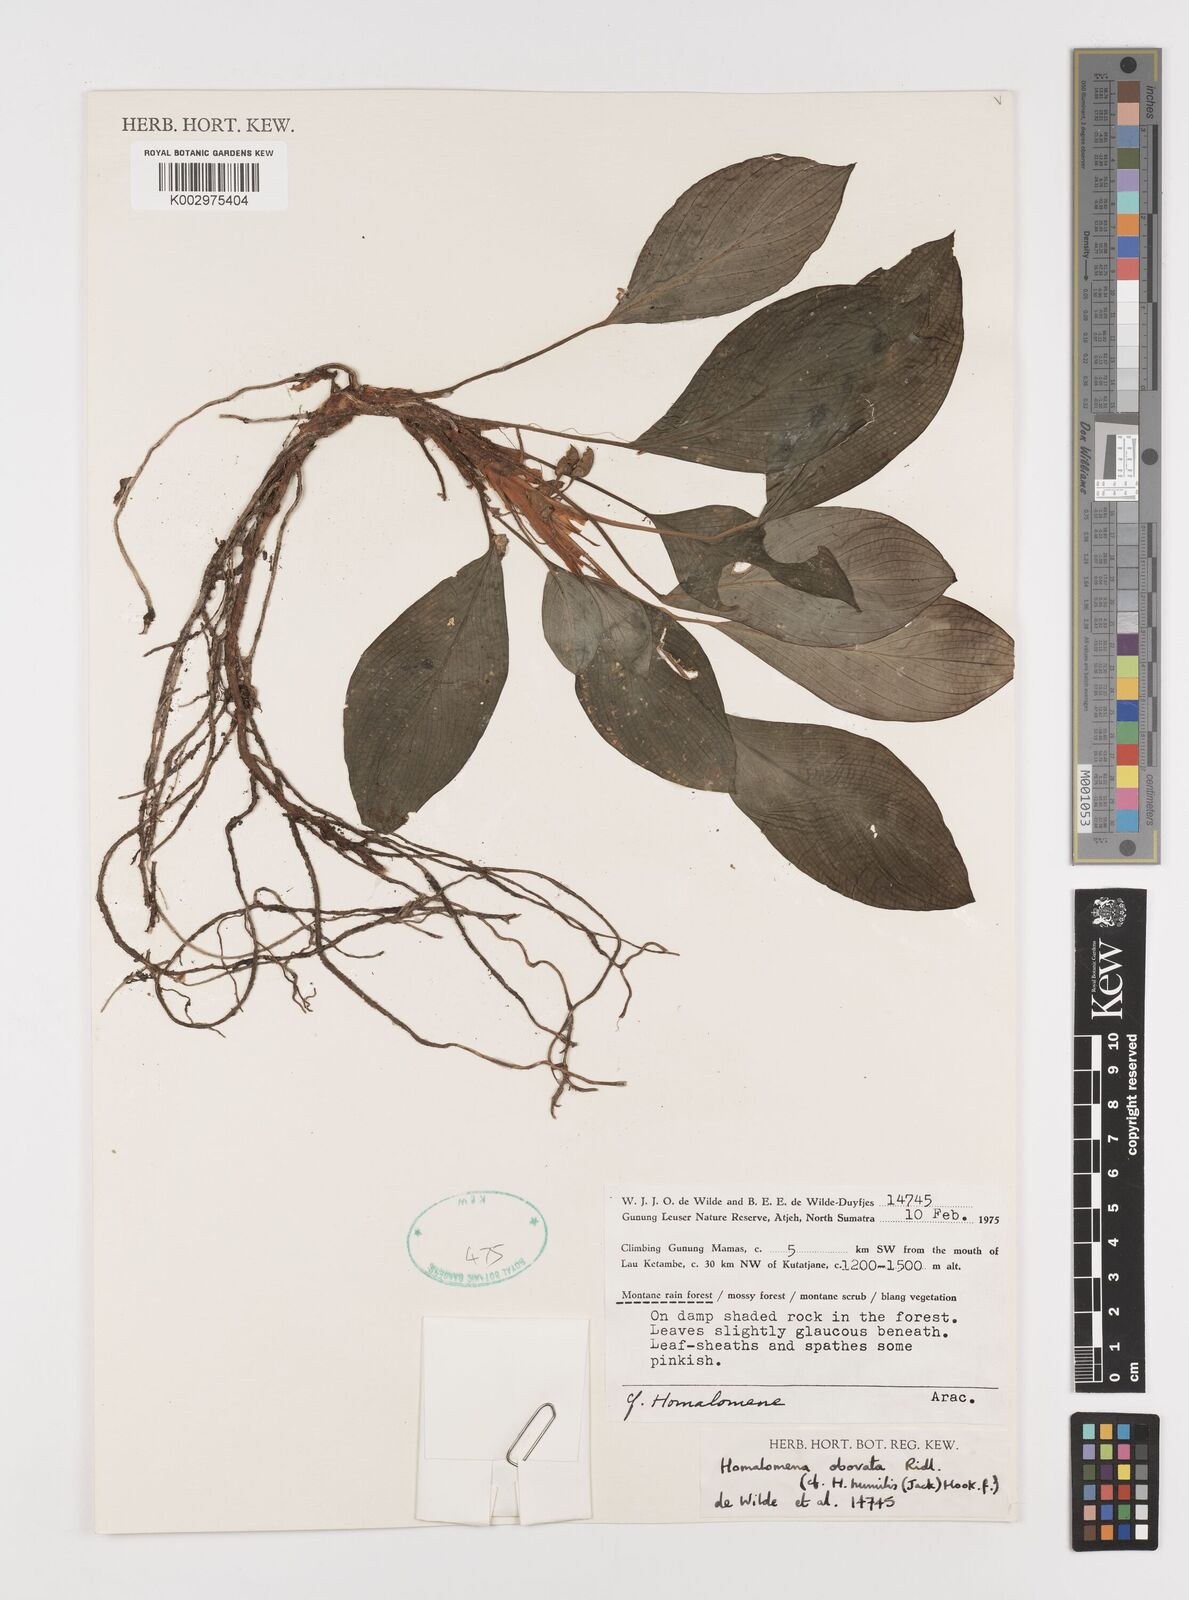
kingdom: Plantae
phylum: Tracheophyta
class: Liliopsida
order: Alismatales
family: Araceae
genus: Homalomena
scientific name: Homalomena obovata
